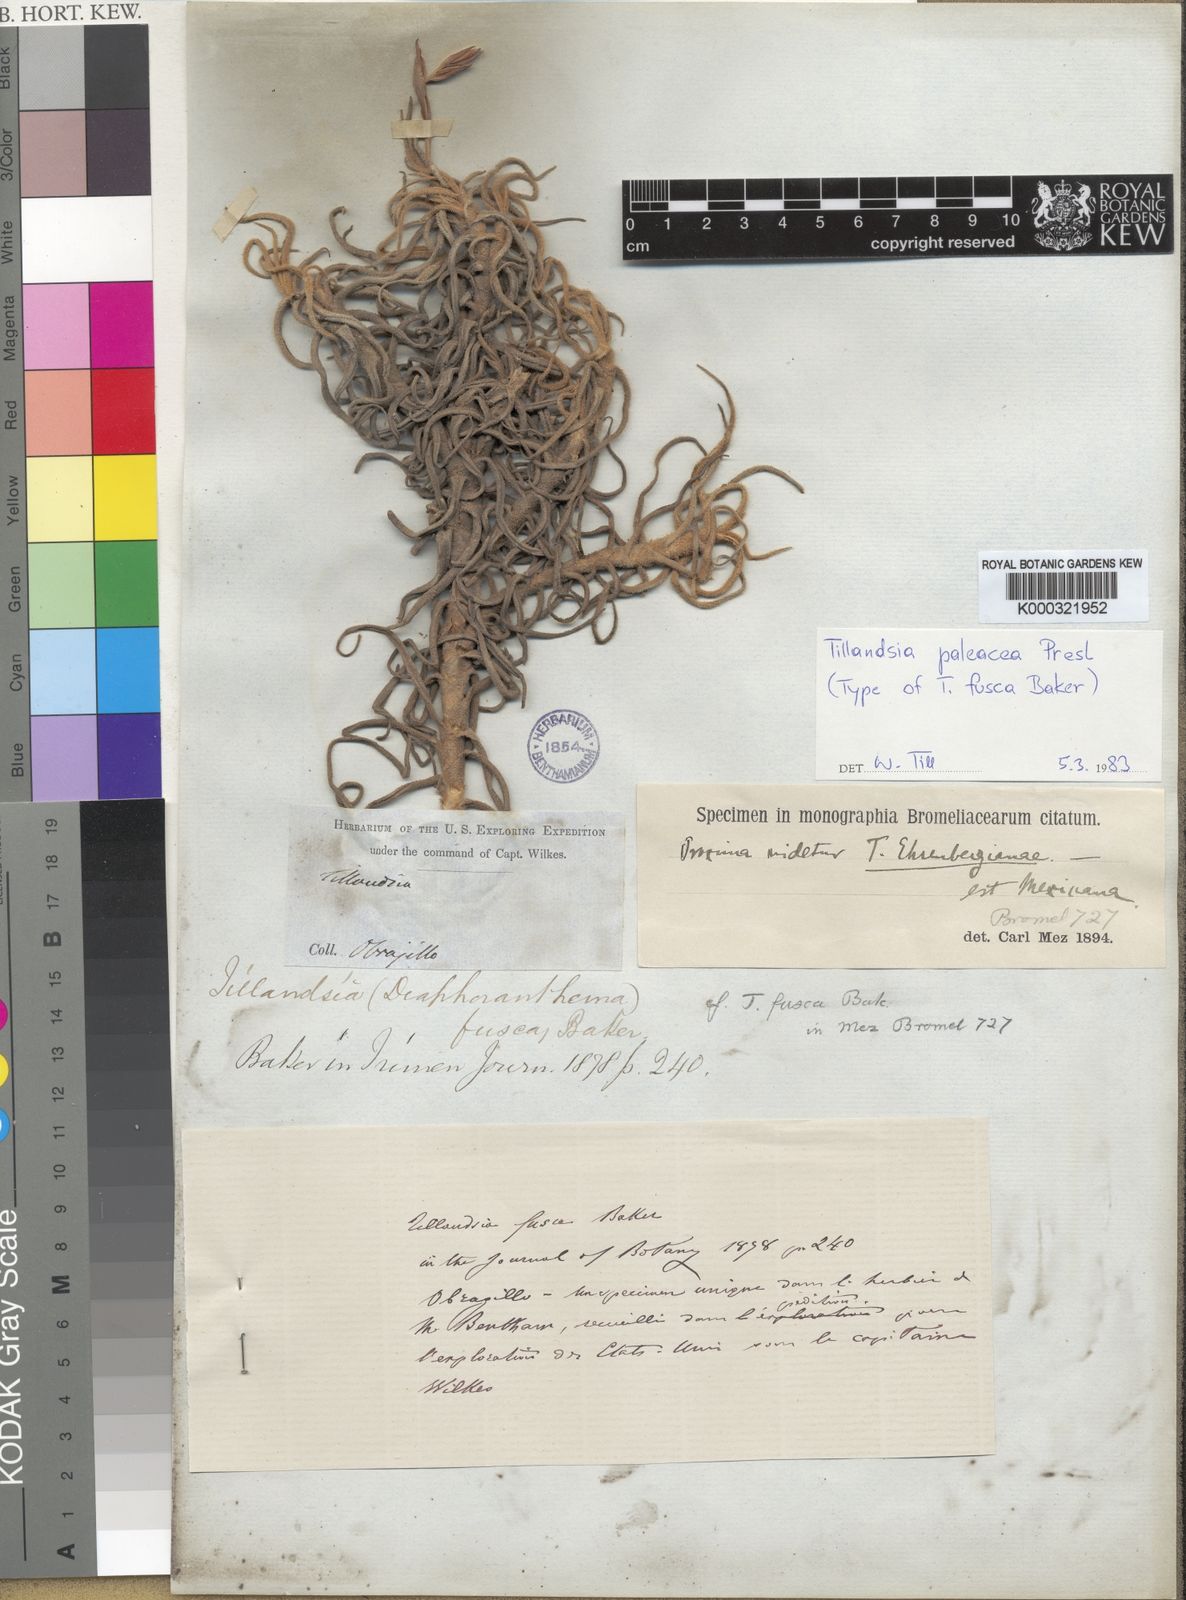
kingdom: Plantae
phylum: Tracheophyta
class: Liliopsida
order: Poales
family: Bromeliaceae
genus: Tillandsia
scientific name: Tillandsia paleacea
